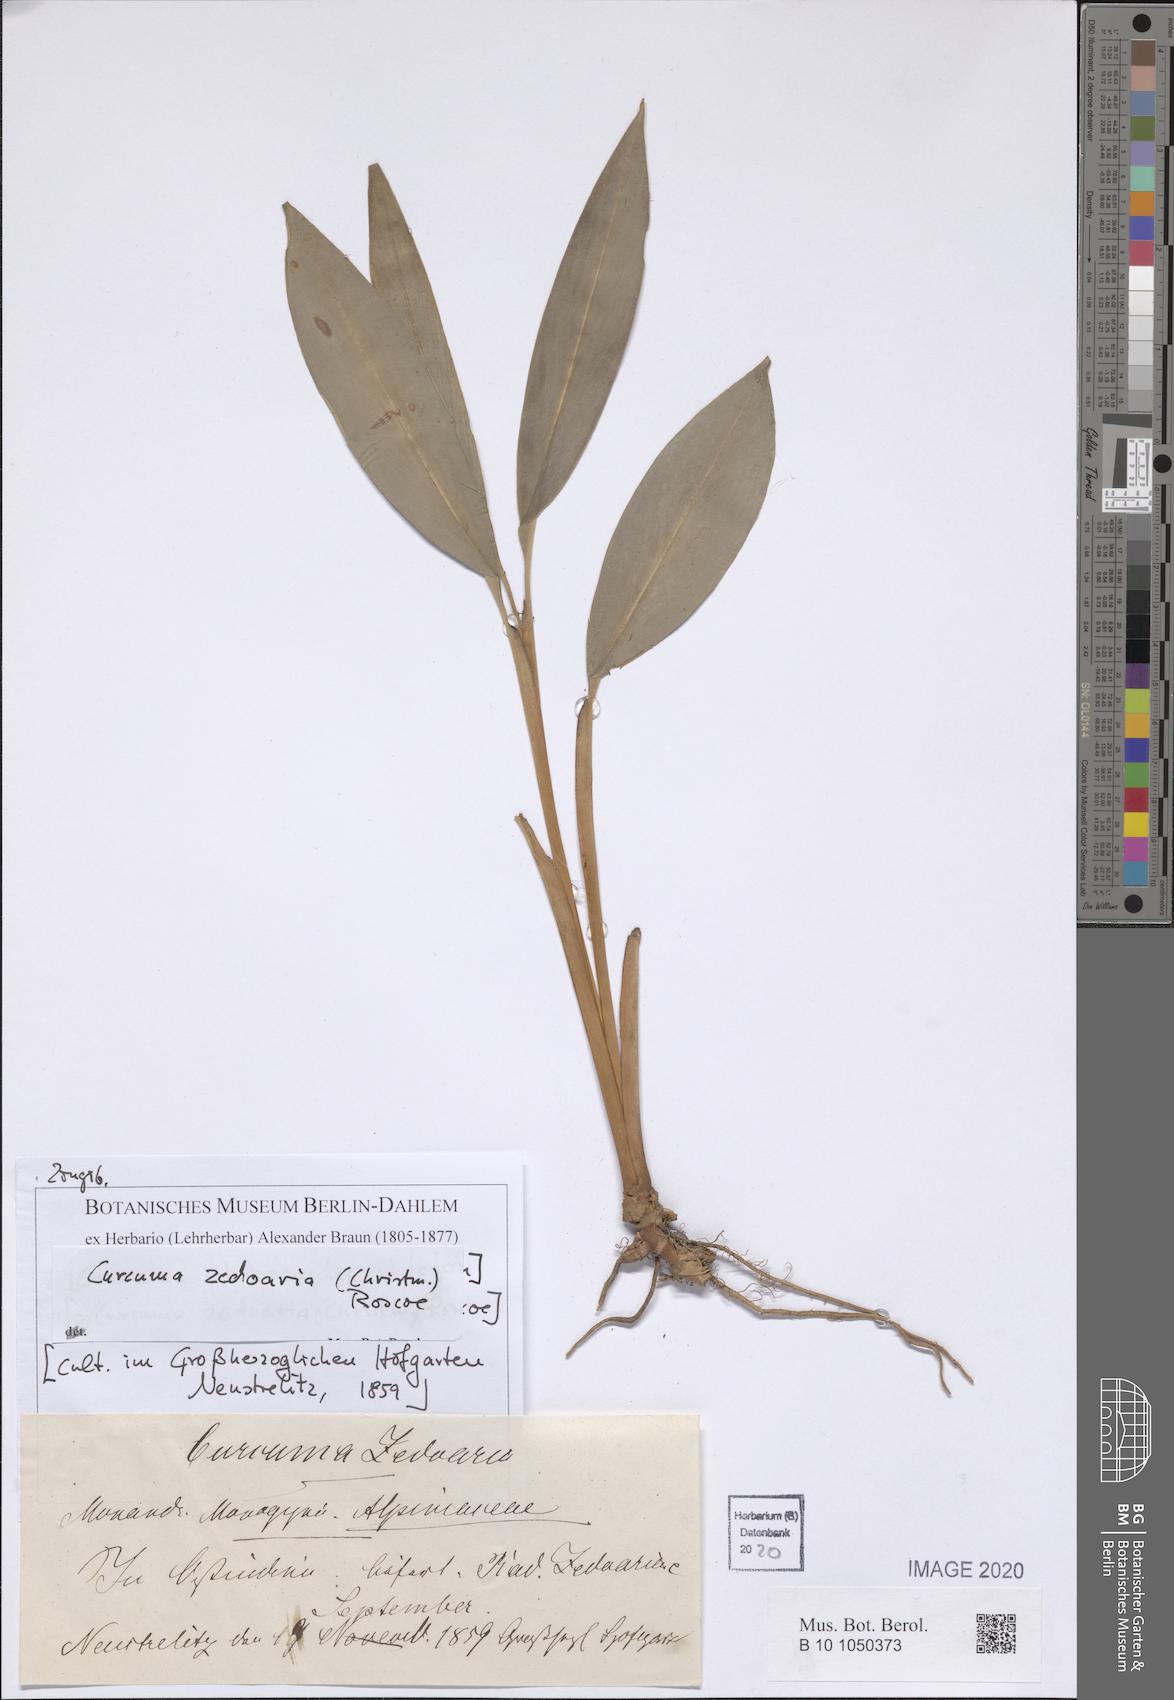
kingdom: Plantae
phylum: Tracheophyta
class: Liliopsida
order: Zingiberales
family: Zingiberaceae
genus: Curcuma
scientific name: Curcuma zedoaria
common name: Zedoary
